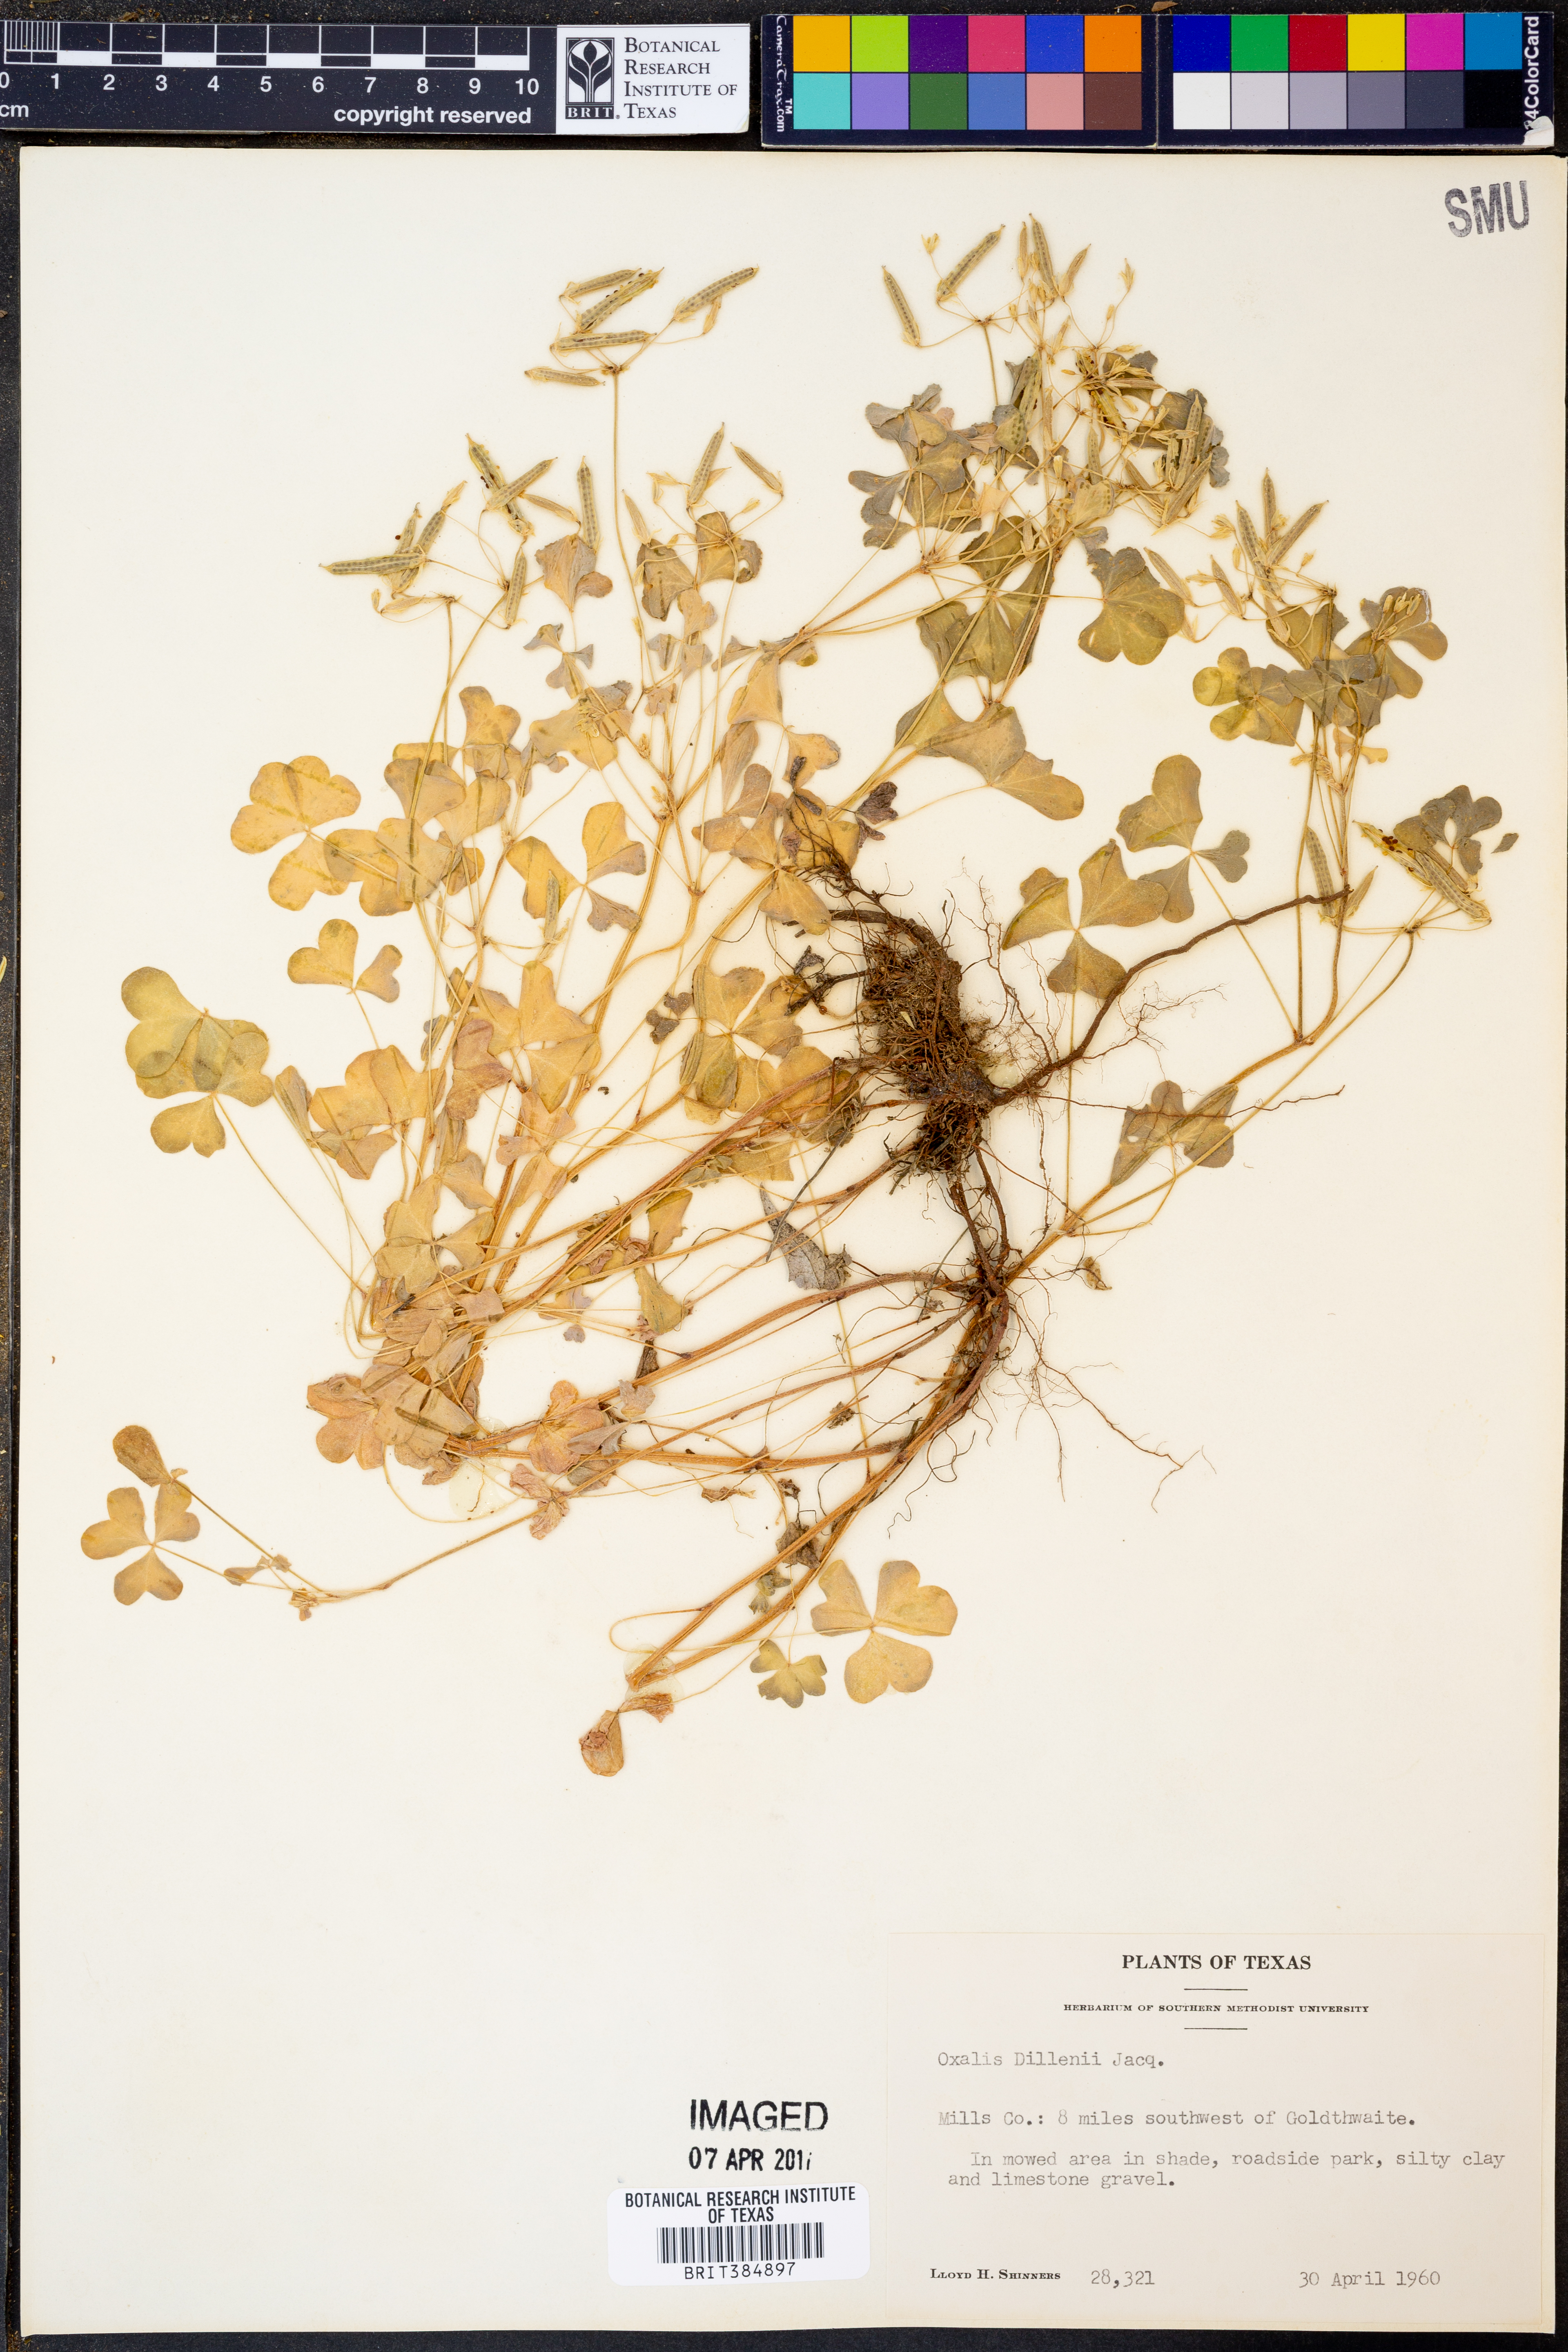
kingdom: Plantae
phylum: Tracheophyta
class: Magnoliopsida
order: Oxalidales
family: Oxalidaceae
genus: Oxalis
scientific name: Oxalis dillenii
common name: Sussex yellow-sorrel
